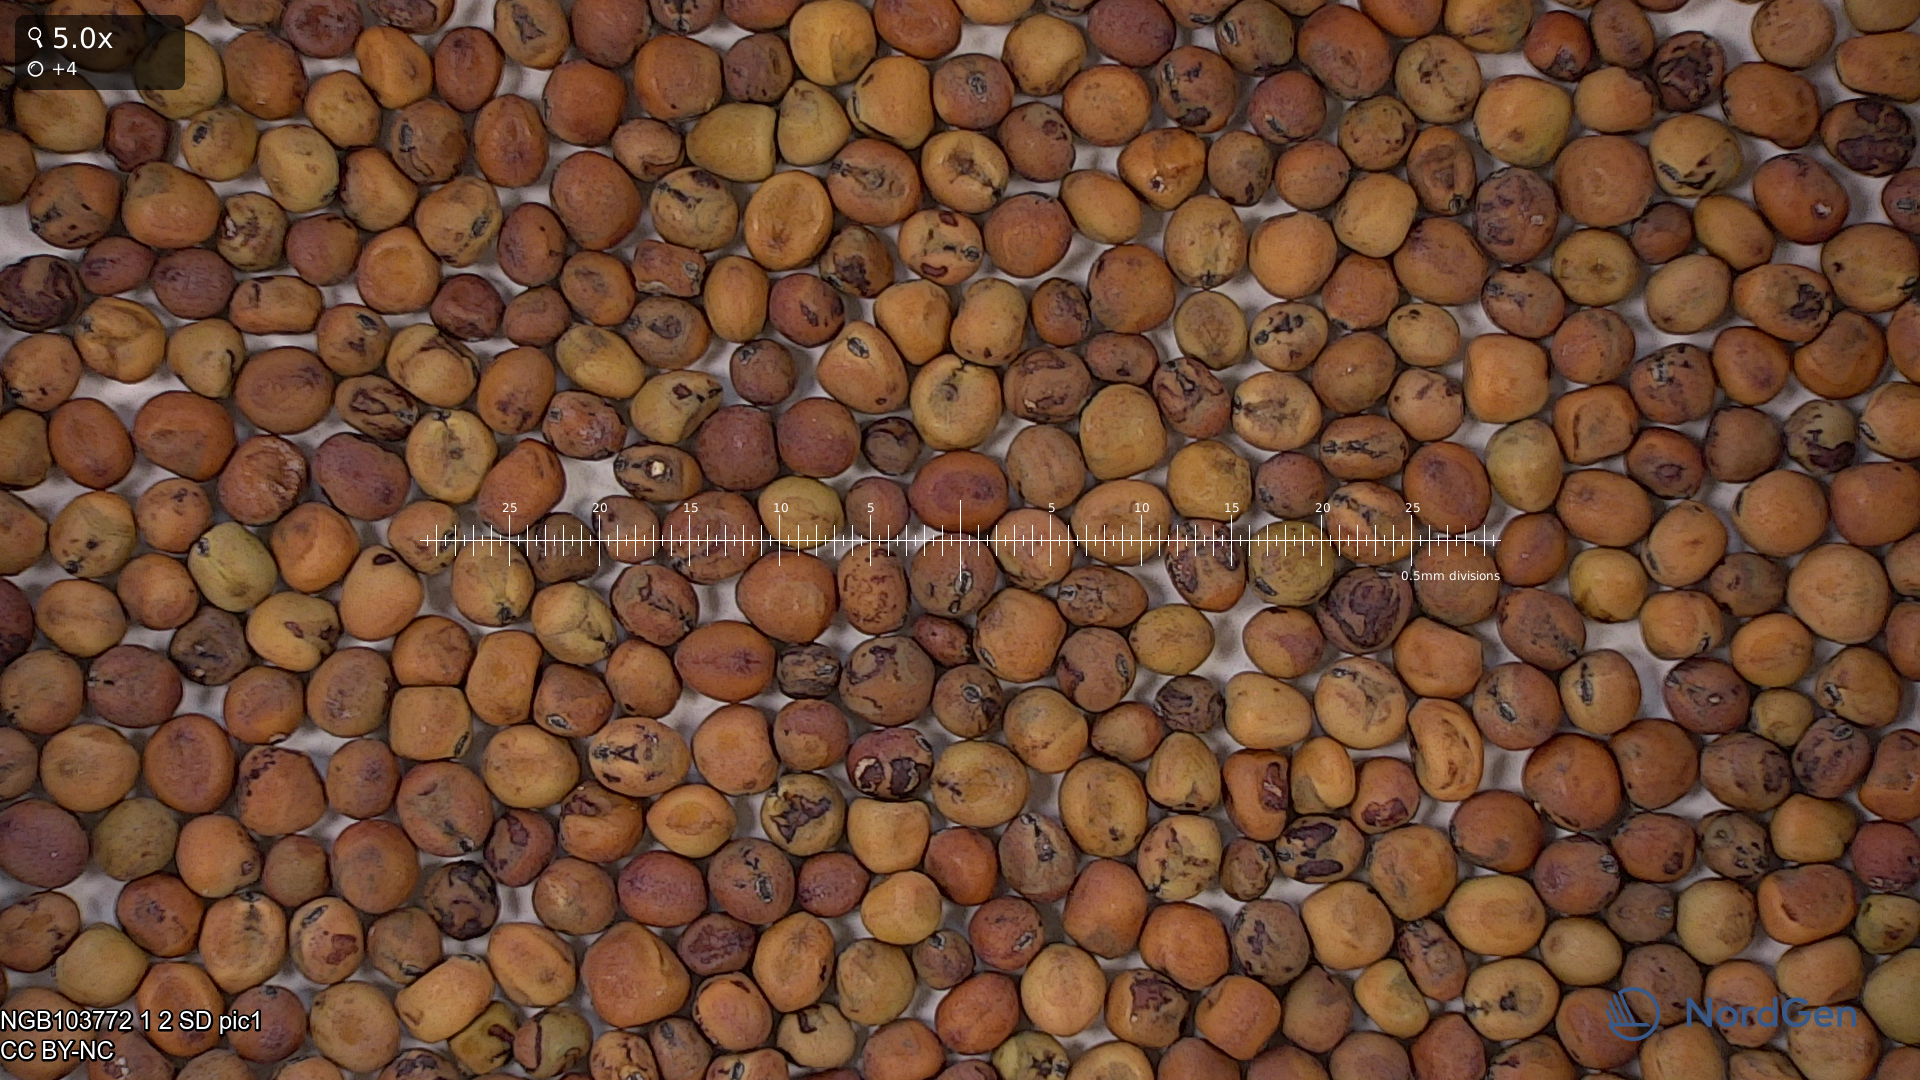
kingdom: Plantae
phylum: Tracheophyta
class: Magnoliopsida
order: Fabales
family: Fabaceae
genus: Lathyrus
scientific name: Lathyrus oleraceus
